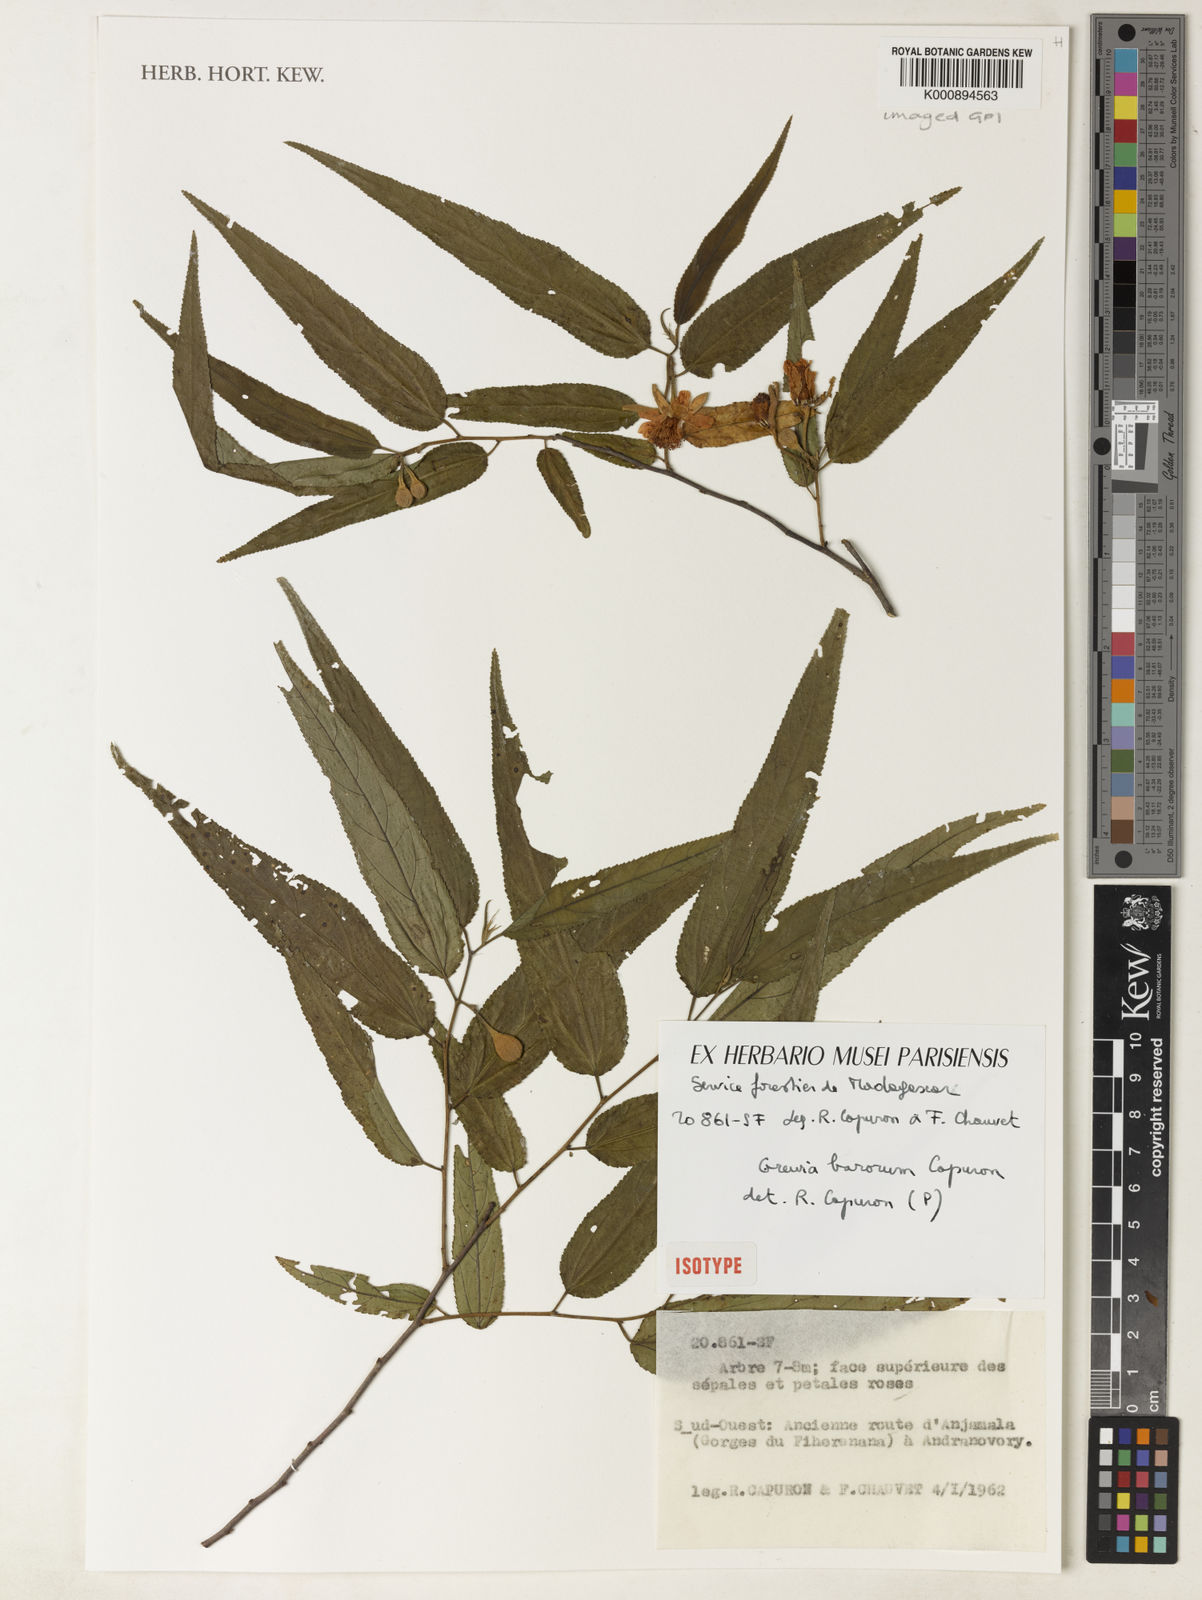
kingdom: Plantae
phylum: Tracheophyta
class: Magnoliopsida
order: Malvales
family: Malvaceae
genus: Grewia
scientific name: Grewia
